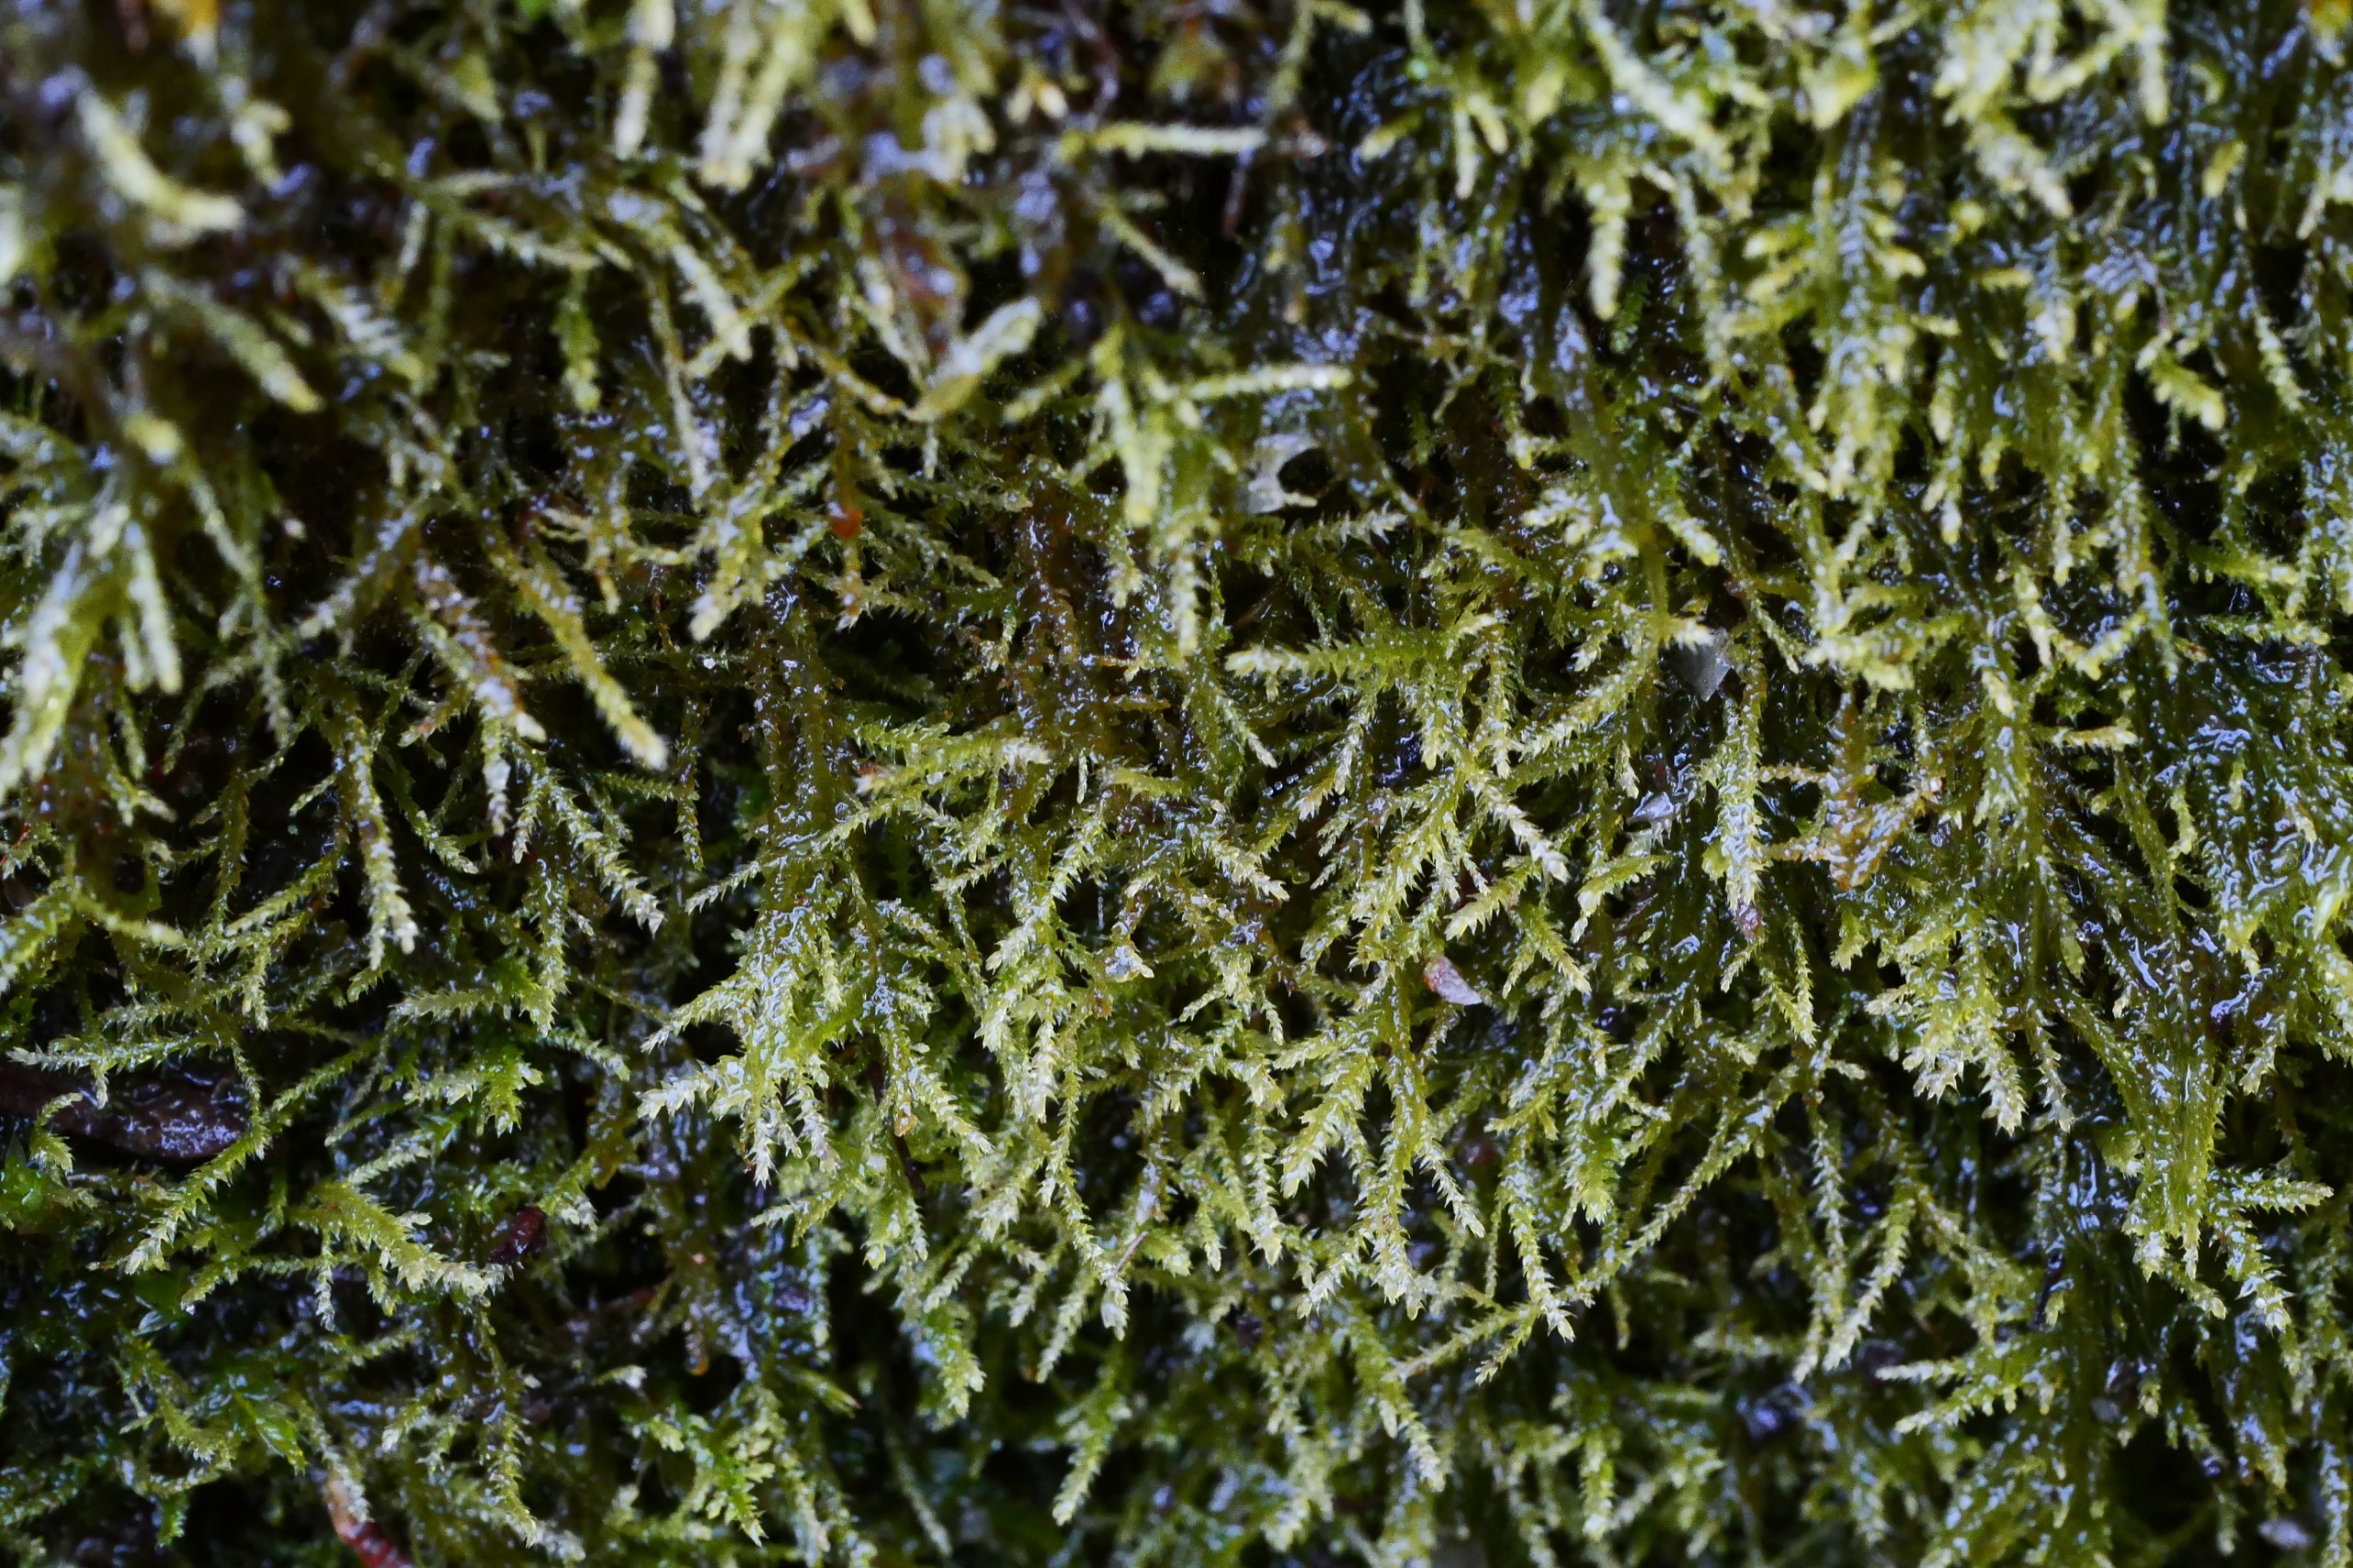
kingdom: Plantae
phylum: Bryophyta
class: Bryopsida
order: Hypnales
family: Lembophyllaceae
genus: Heterocladium
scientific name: Heterocladium heteropterum
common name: Mat forskelliggren
